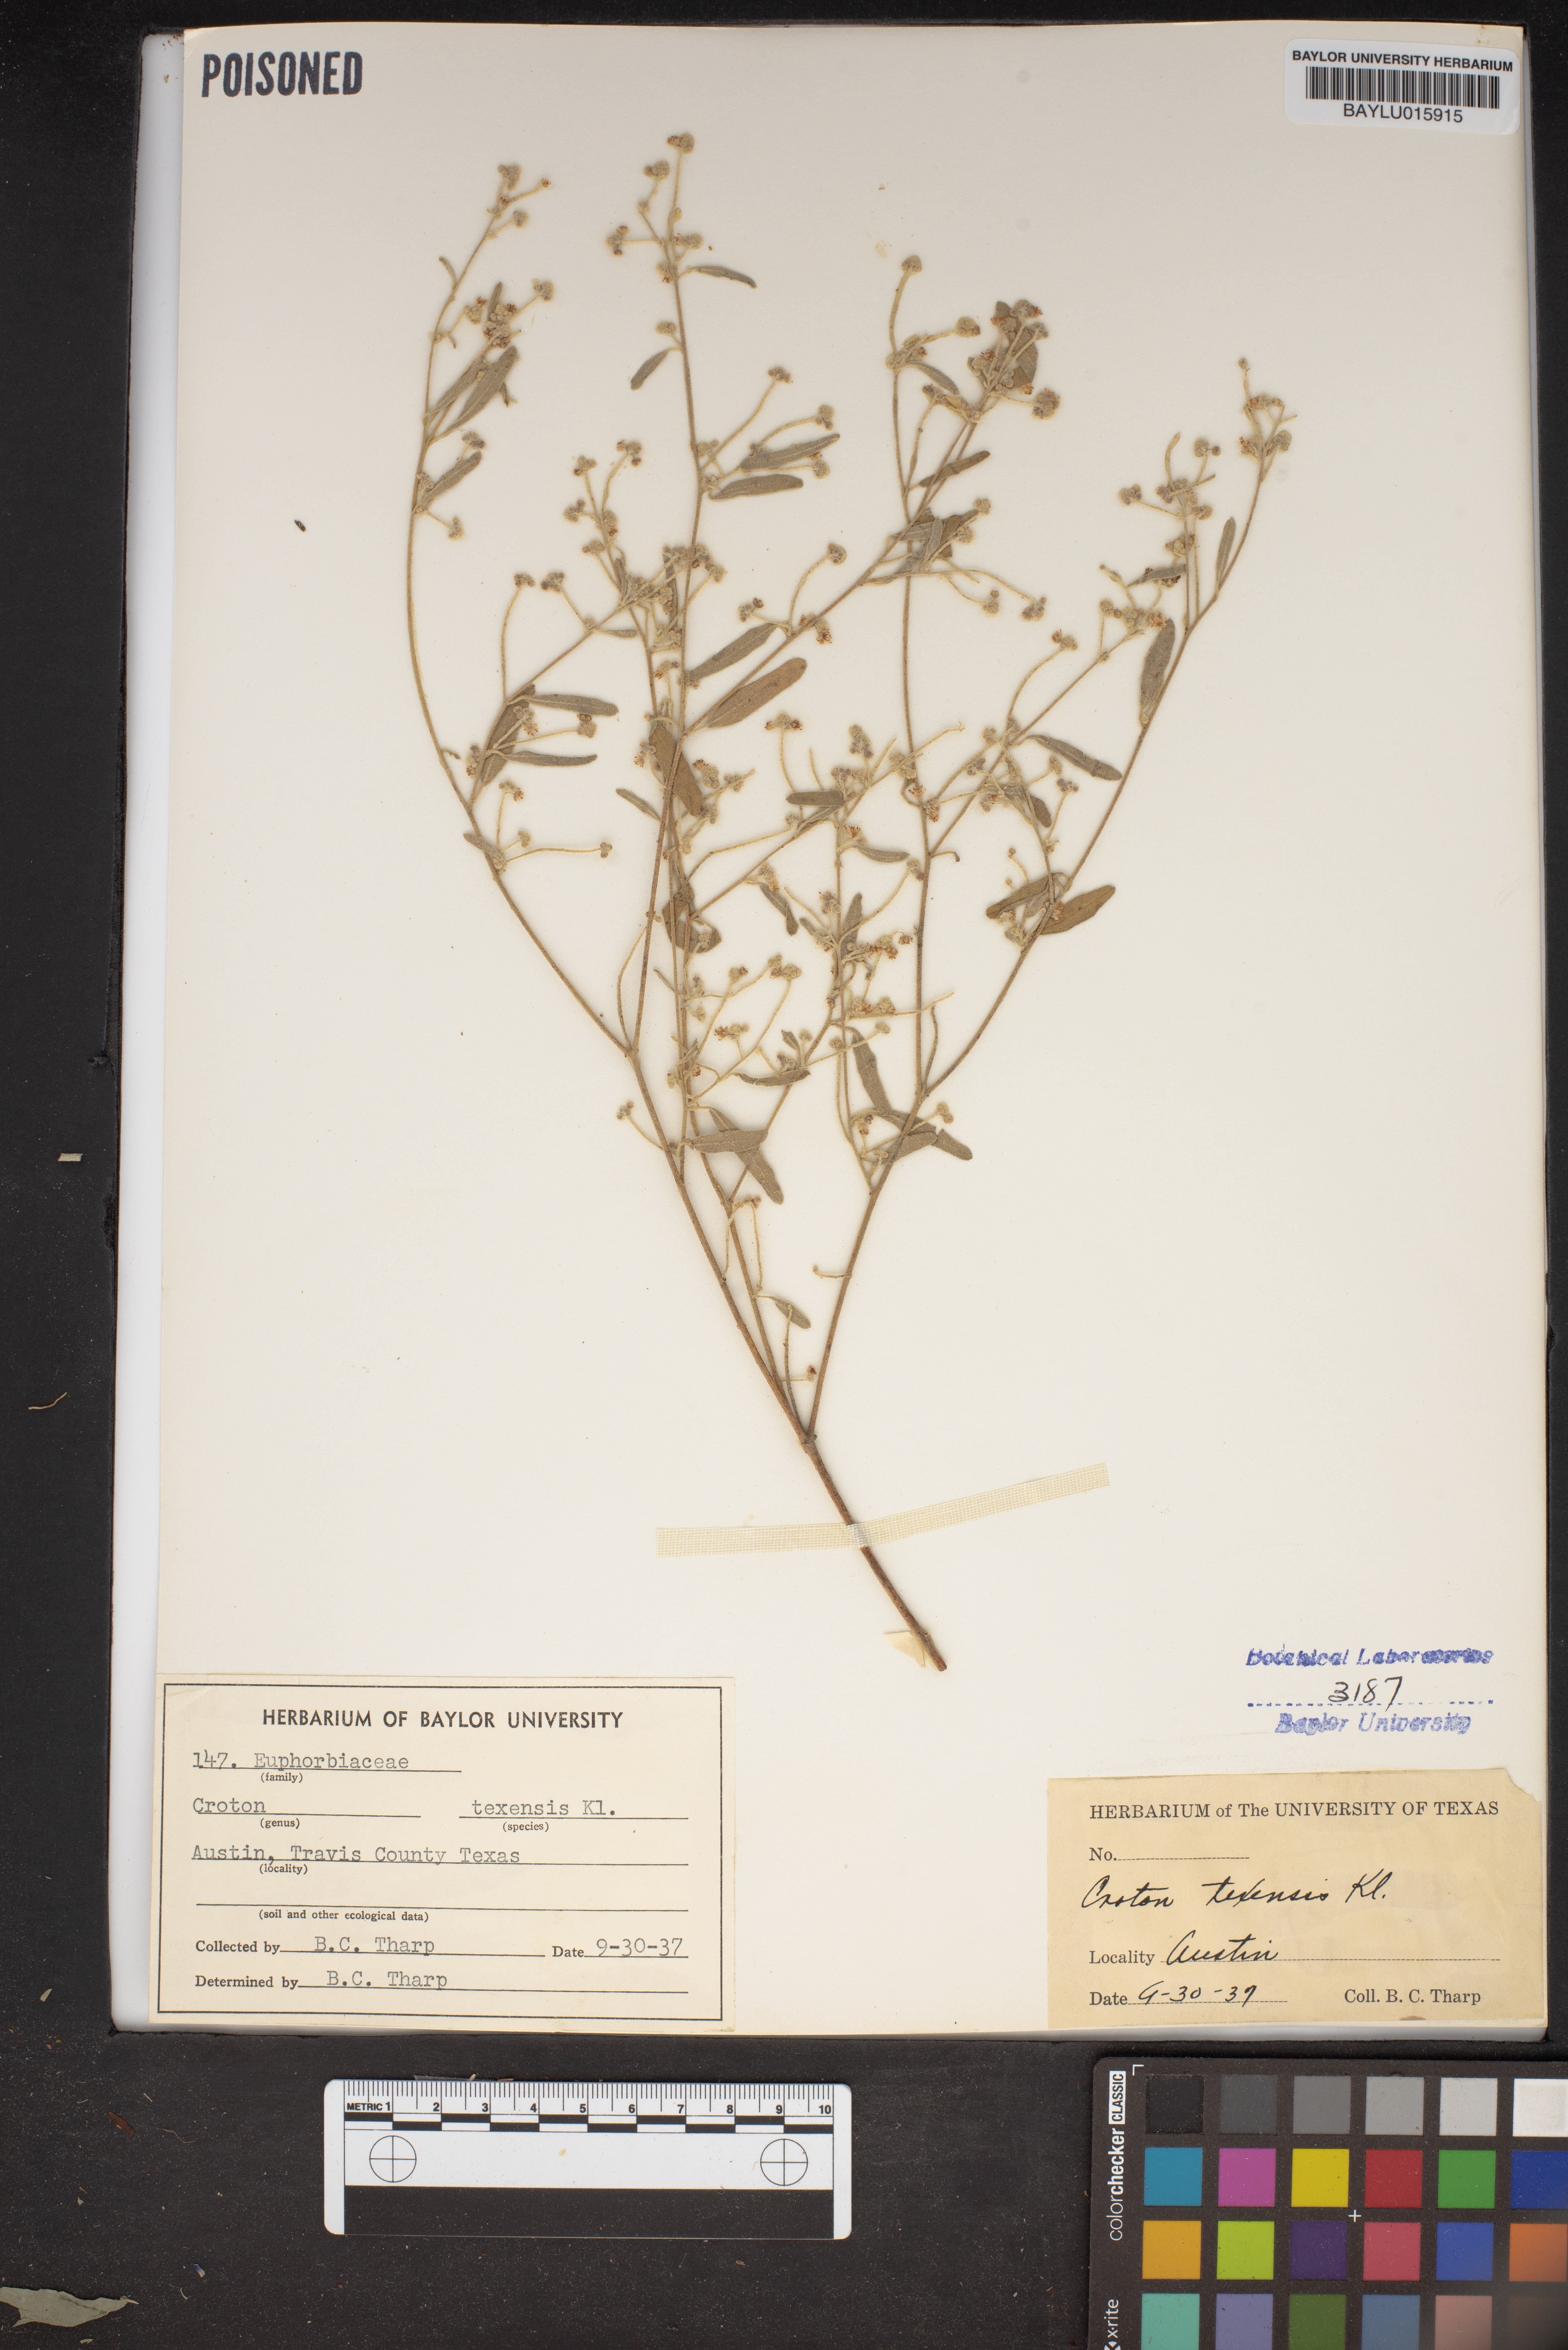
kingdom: Plantae
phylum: Tracheophyta
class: Magnoliopsida
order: Malpighiales
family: Euphorbiaceae
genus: Croton
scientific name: Croton texensis
